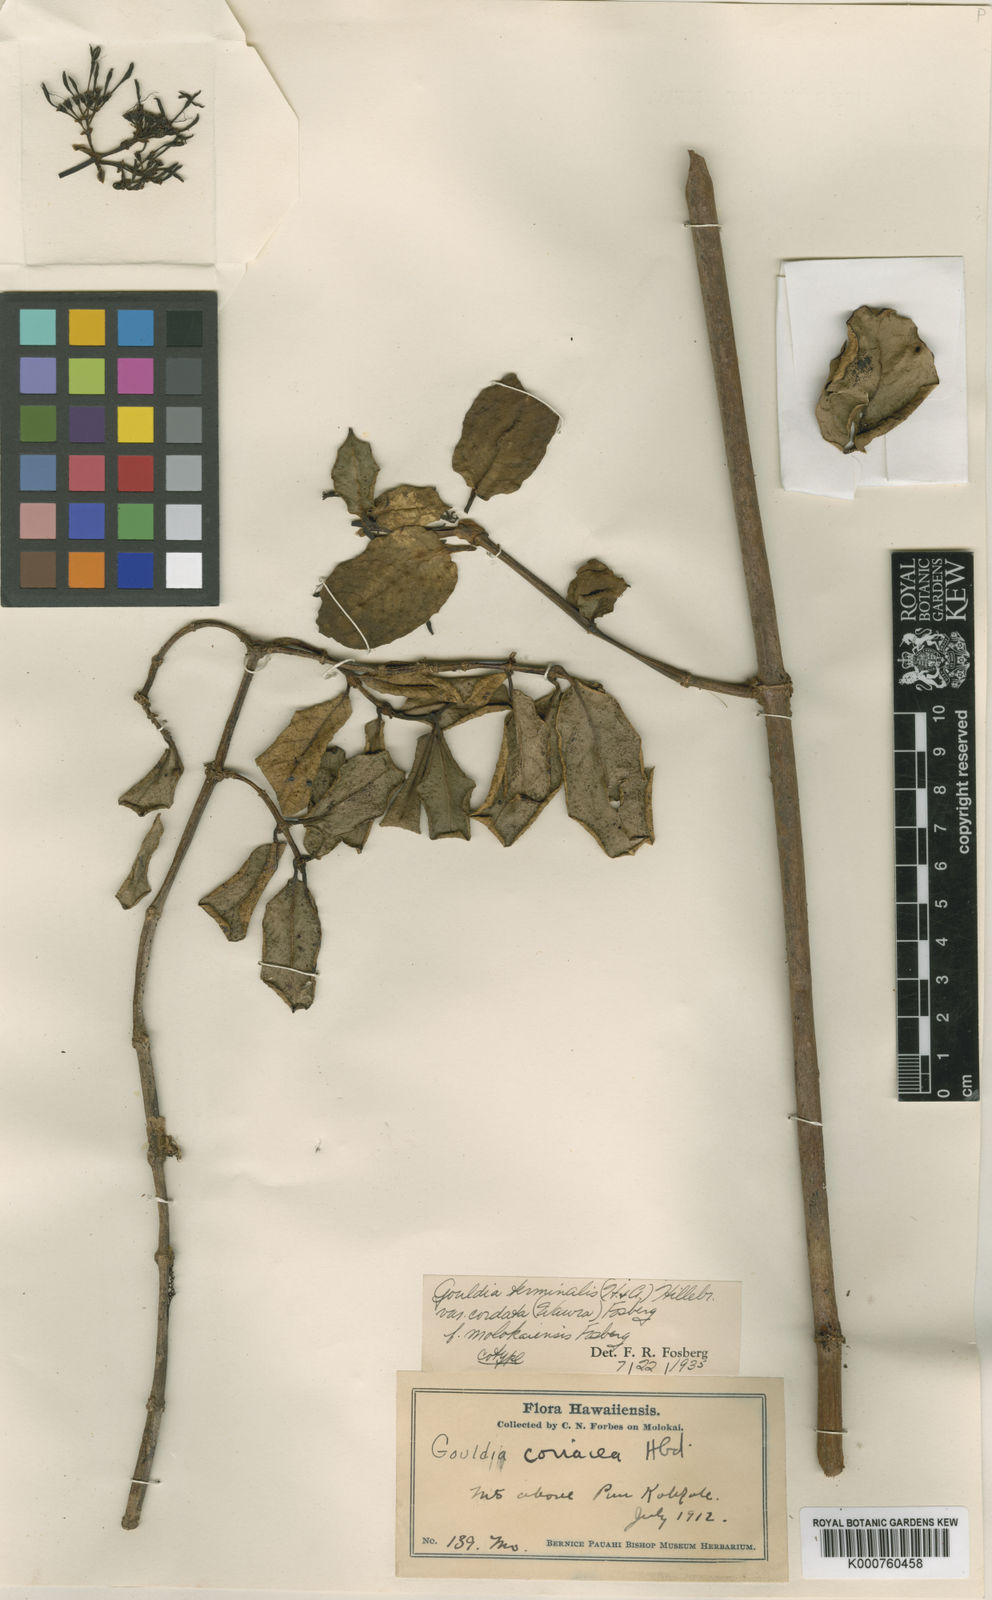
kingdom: Plantae
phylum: Tracheophyta
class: Magnoliopsida
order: Gentianales
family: Rubiaceae
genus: Kadua
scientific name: Kadua affinis
